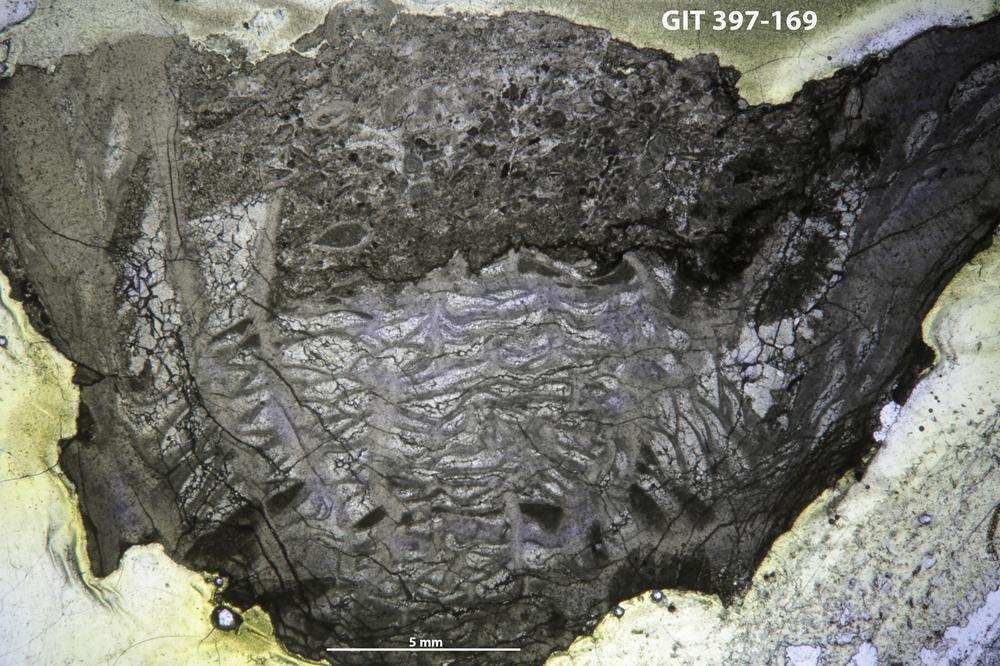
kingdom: Animalia
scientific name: Animalia
